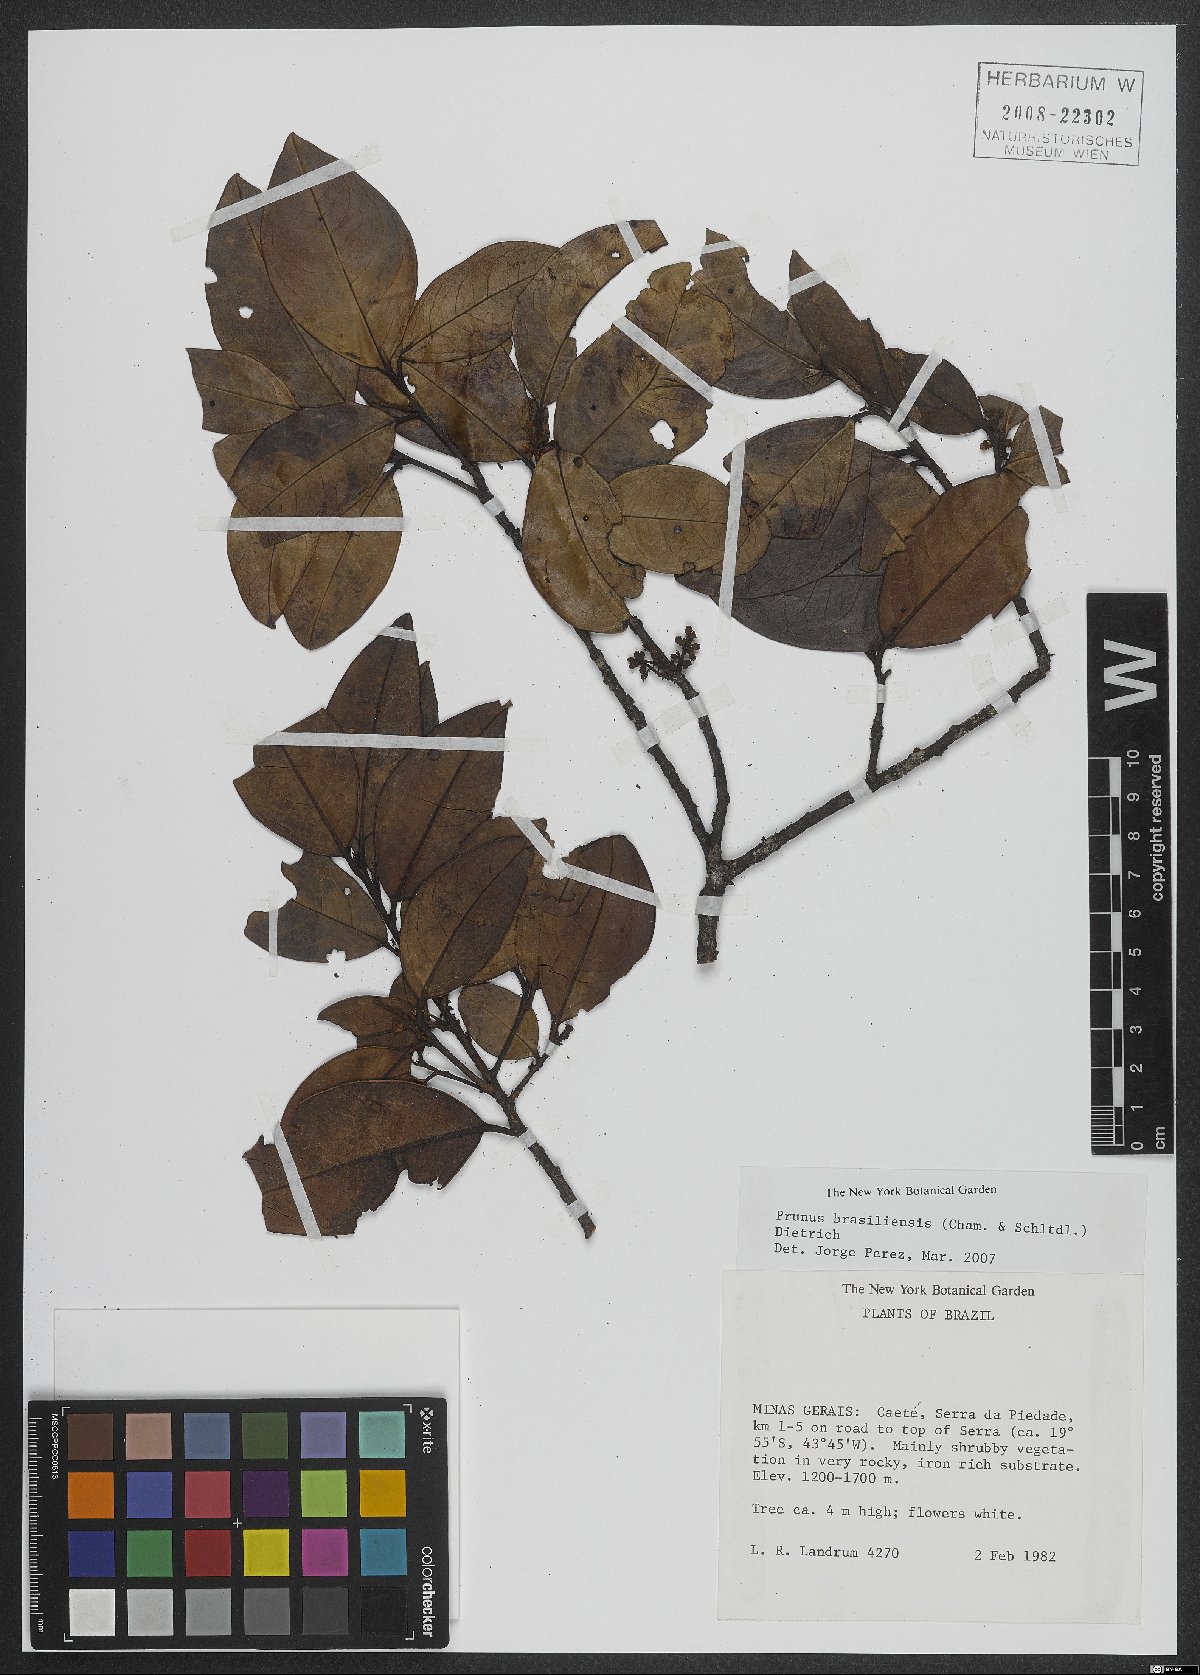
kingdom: Plantae
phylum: Tracheophyta
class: Magnoliopsida
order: Rosales
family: Rosaceae
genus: Prunus
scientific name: Prunus brasiliensis
